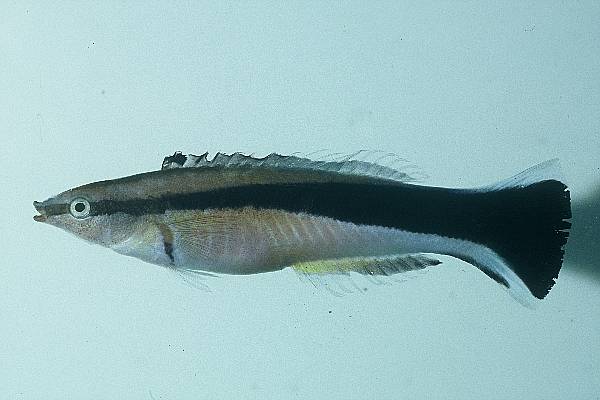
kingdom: Animalia
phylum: Chordata
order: Perciformes
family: Labridae
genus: Labroides
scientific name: Labroides dimidiatus
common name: Blue diesel wrasse
